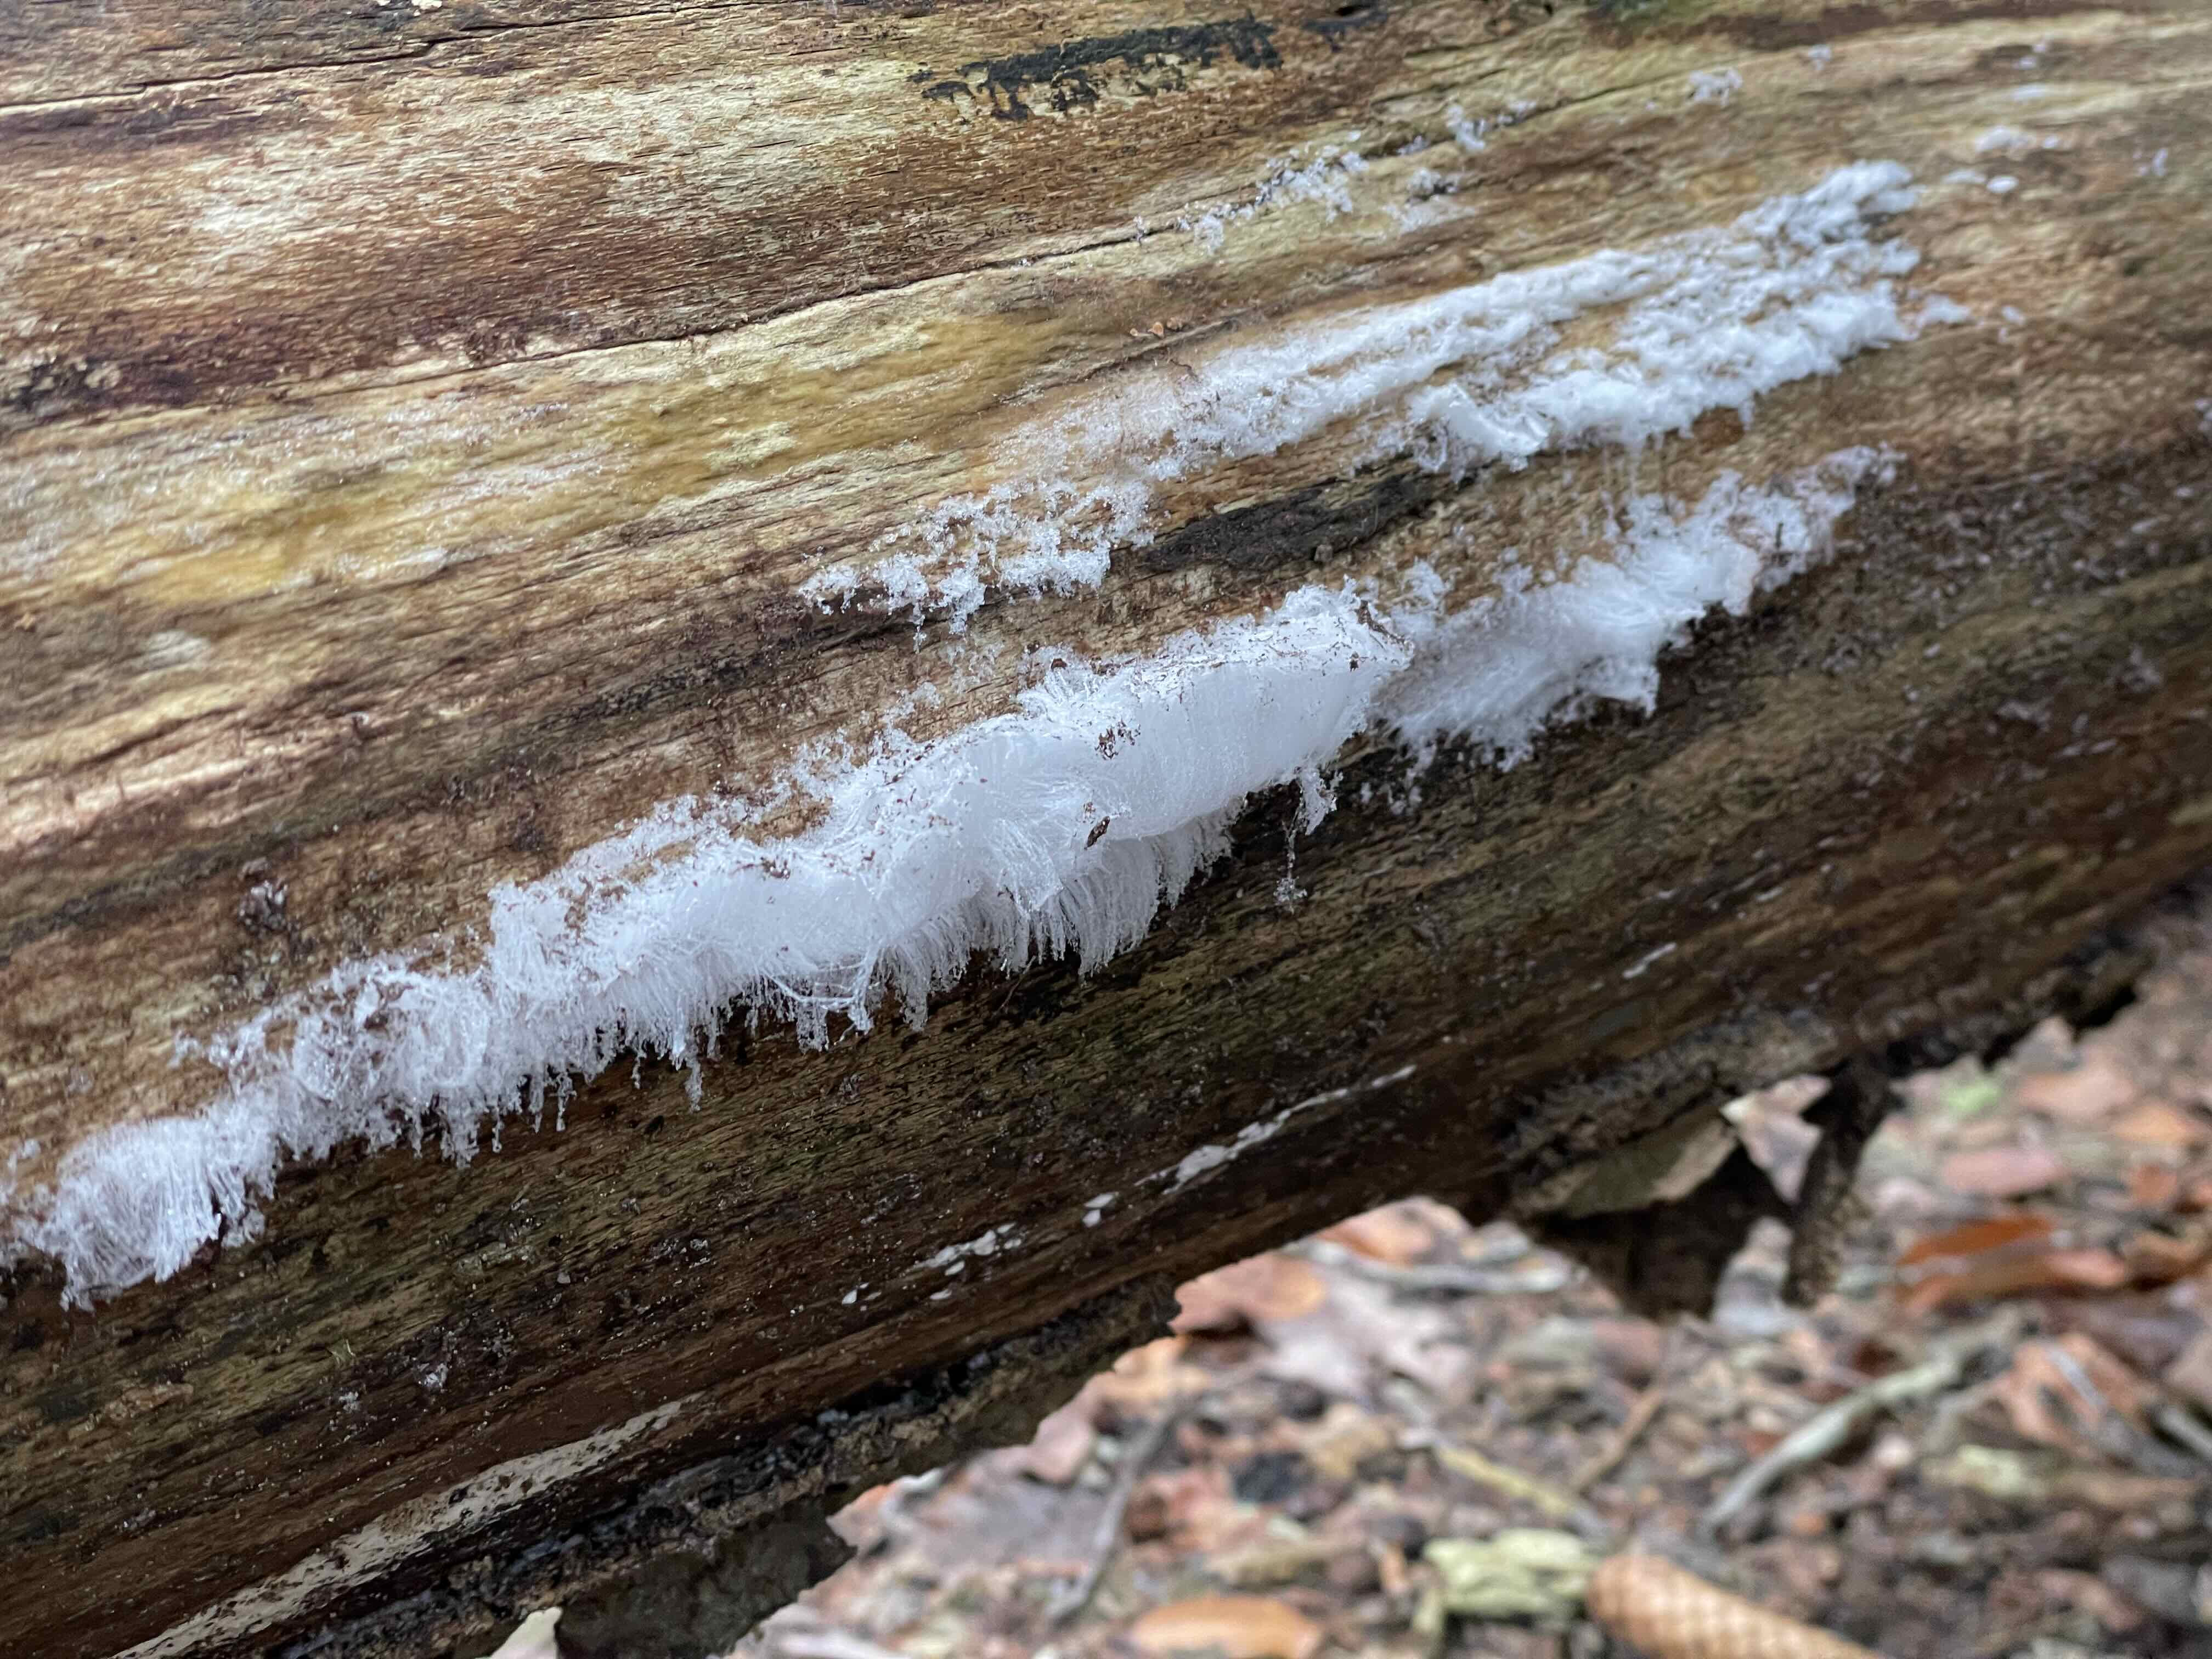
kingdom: Fungi
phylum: Basidiomycota
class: Tremellomycetes
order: Tremellales
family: Exidiaceae
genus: Exidiopsis
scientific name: Exidiopsis effusa
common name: smuk bævrehinde
